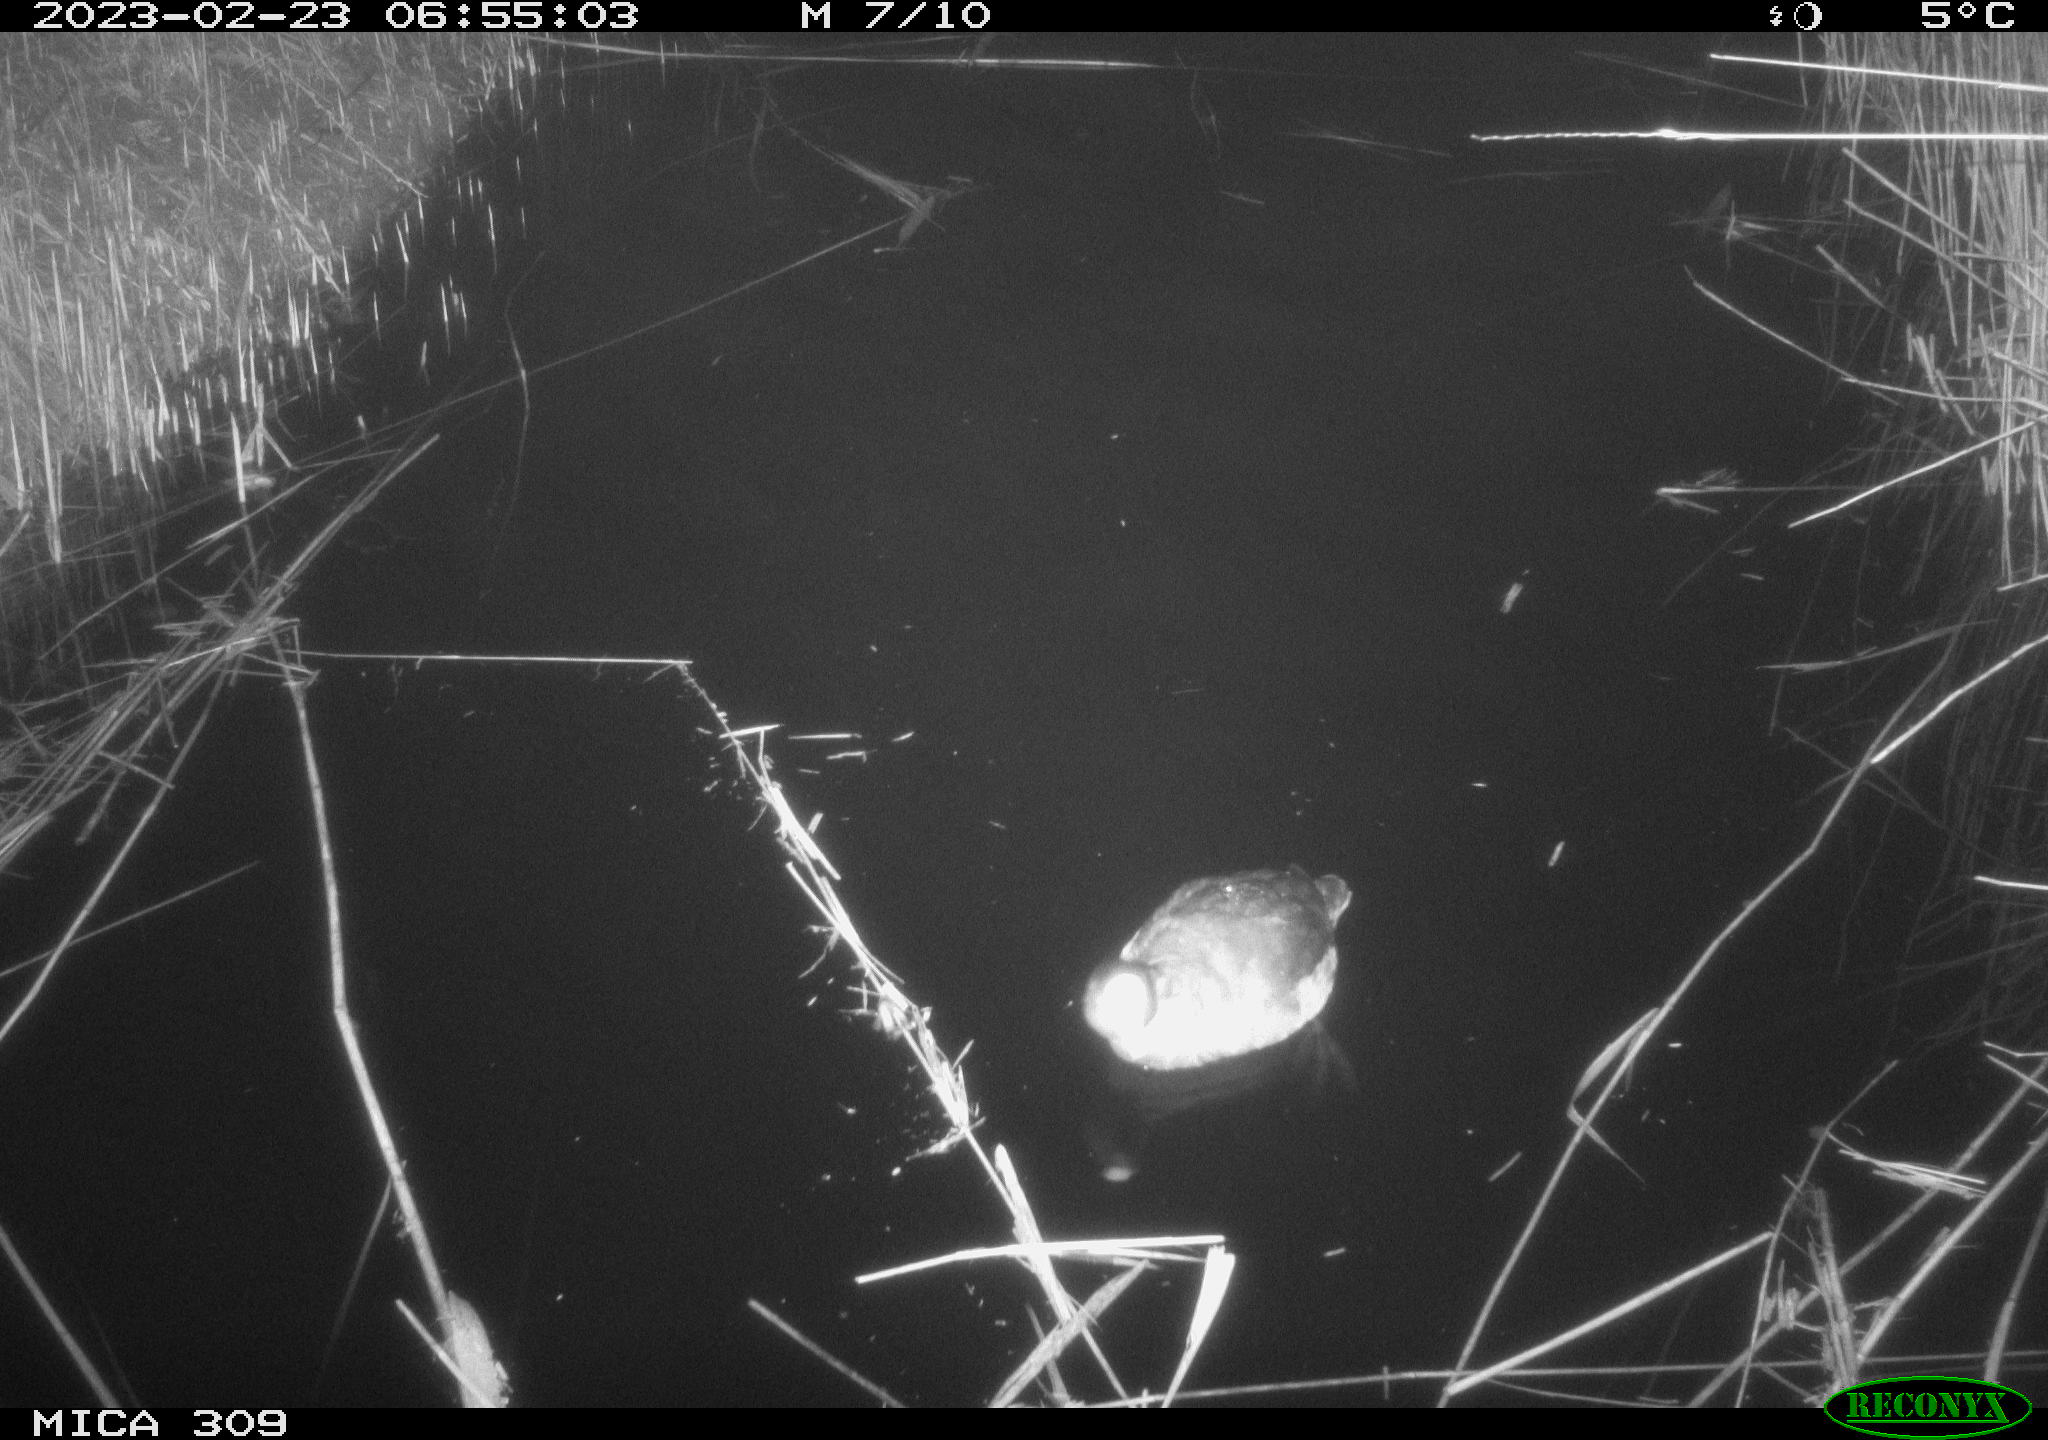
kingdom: Animalia
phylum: Chordata
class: Aves
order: Gruiformes
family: Rallidae
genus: Fulica
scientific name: Fulica atra
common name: Eurasian coot
